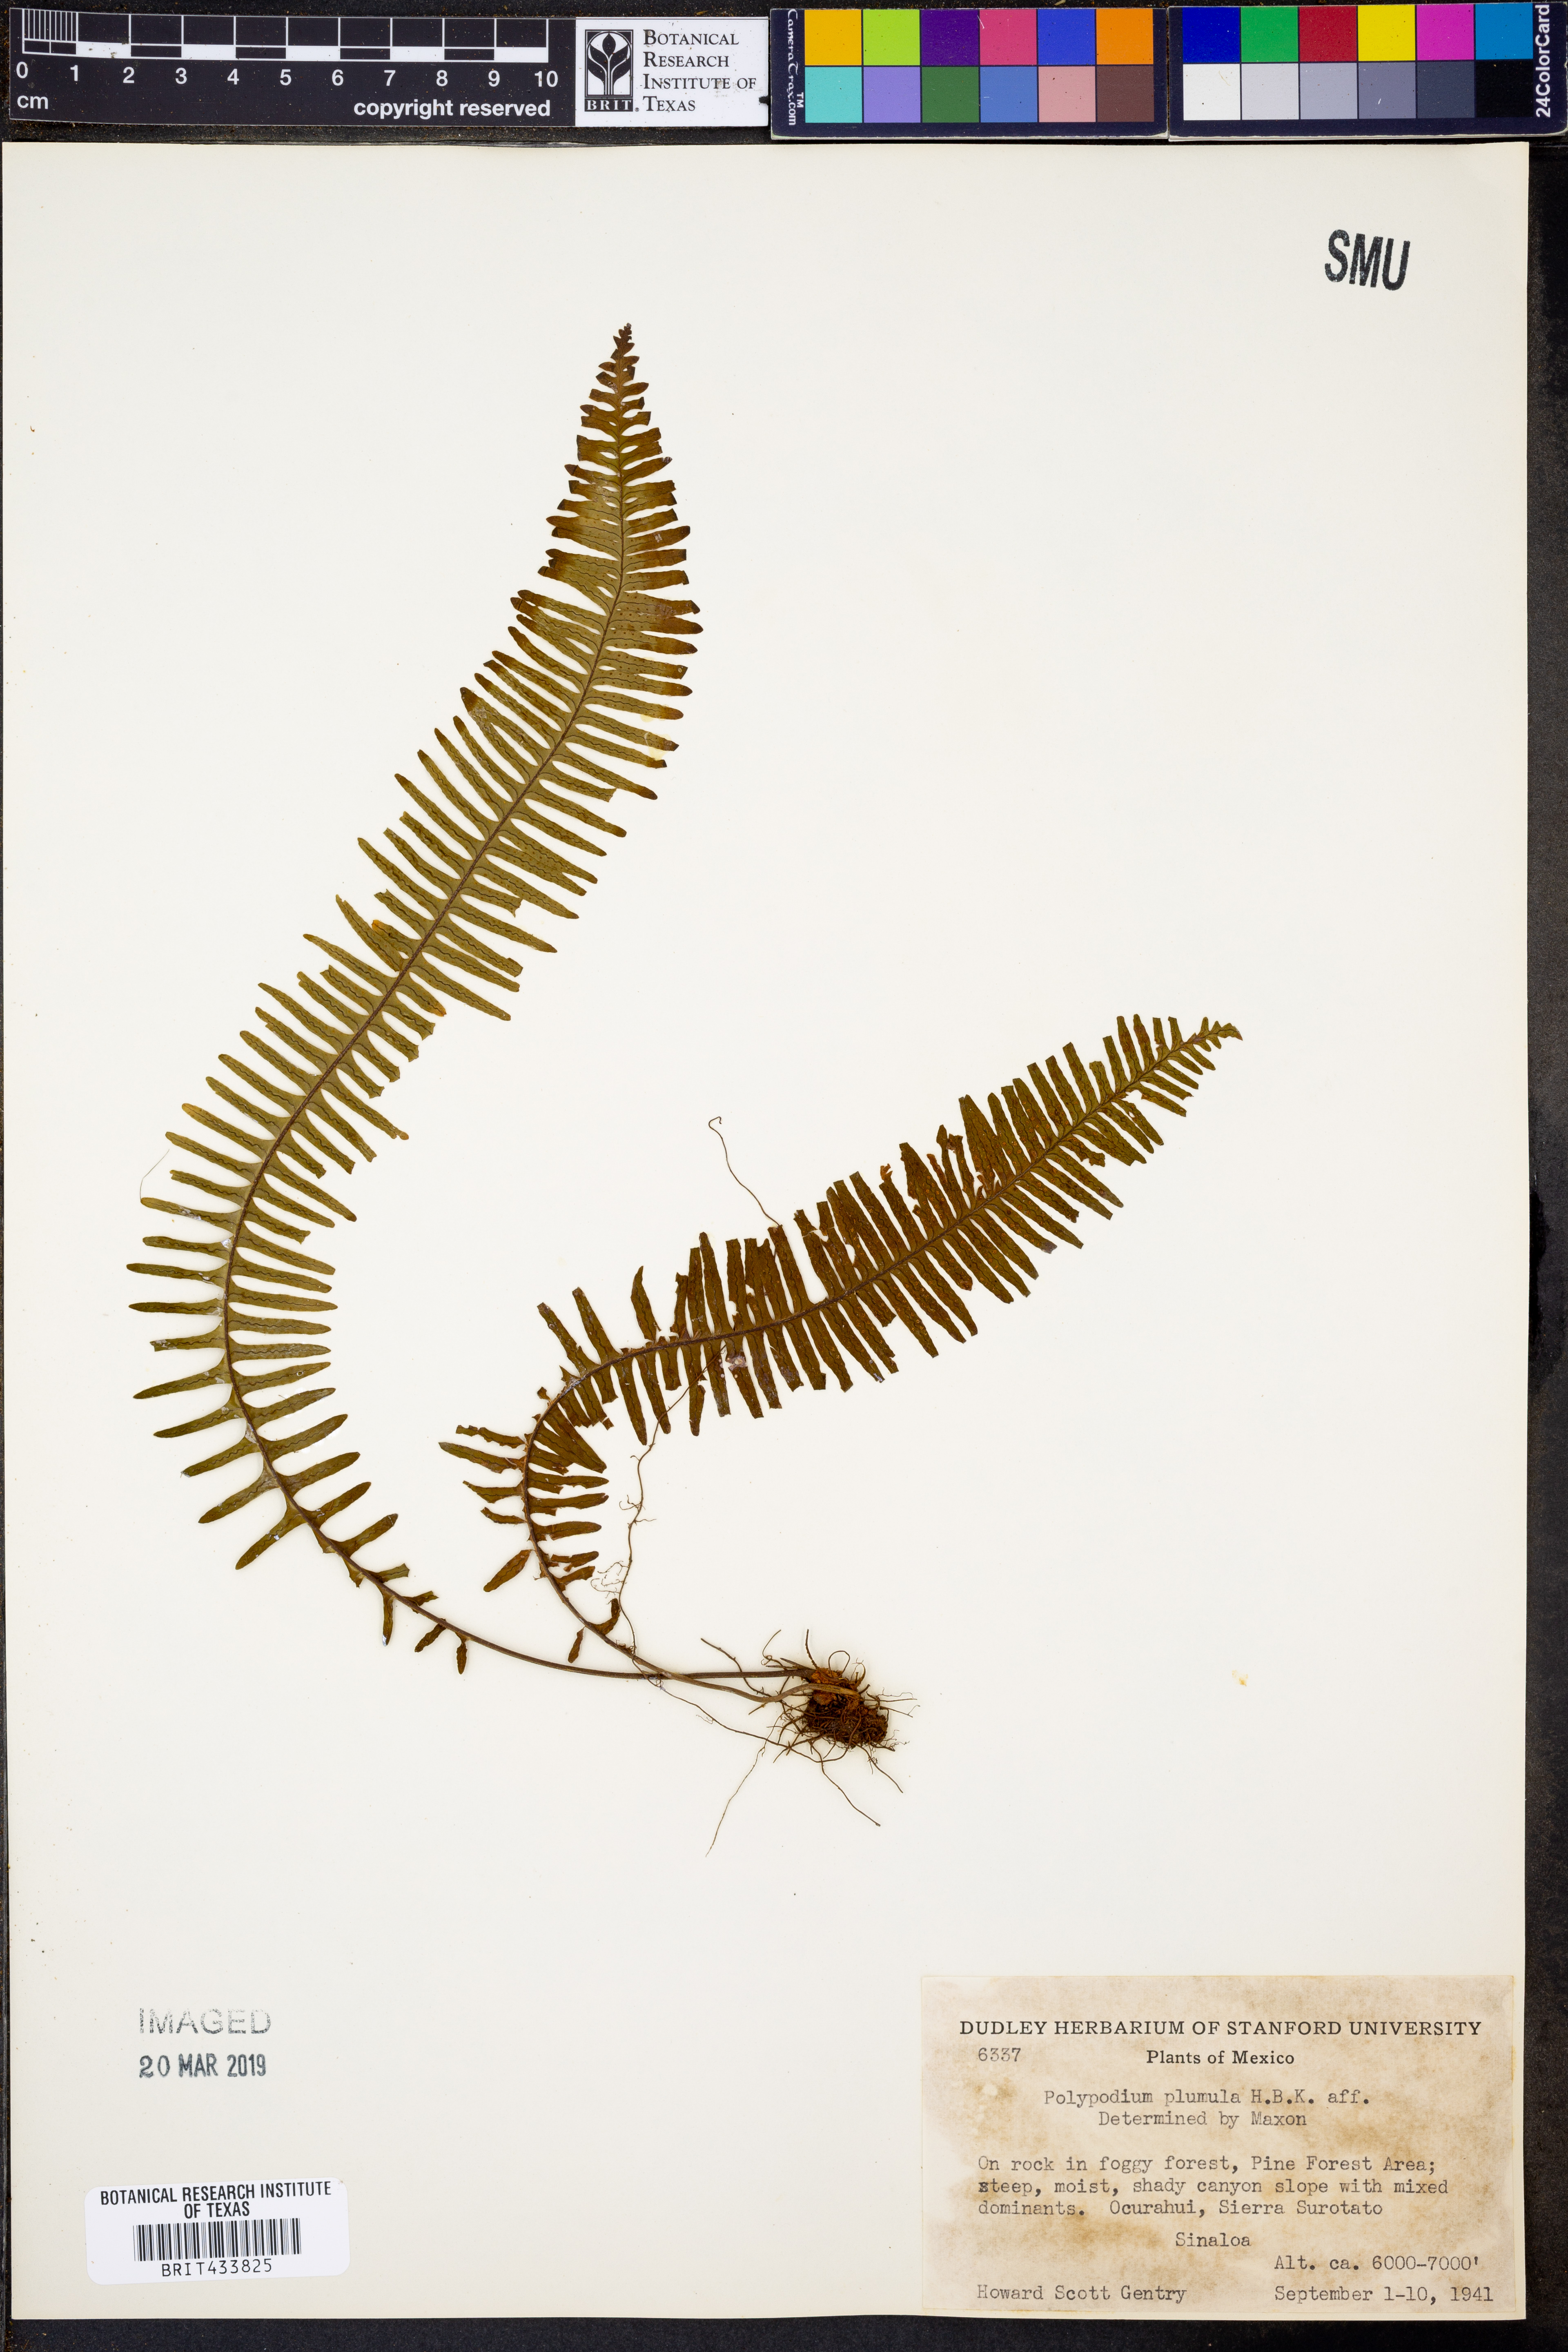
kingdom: Plantae
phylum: Tracheophyta
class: Polypodiopsida
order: Polypodiales
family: Polypodiaceae
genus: Pecluma
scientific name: Pecluma plumula
